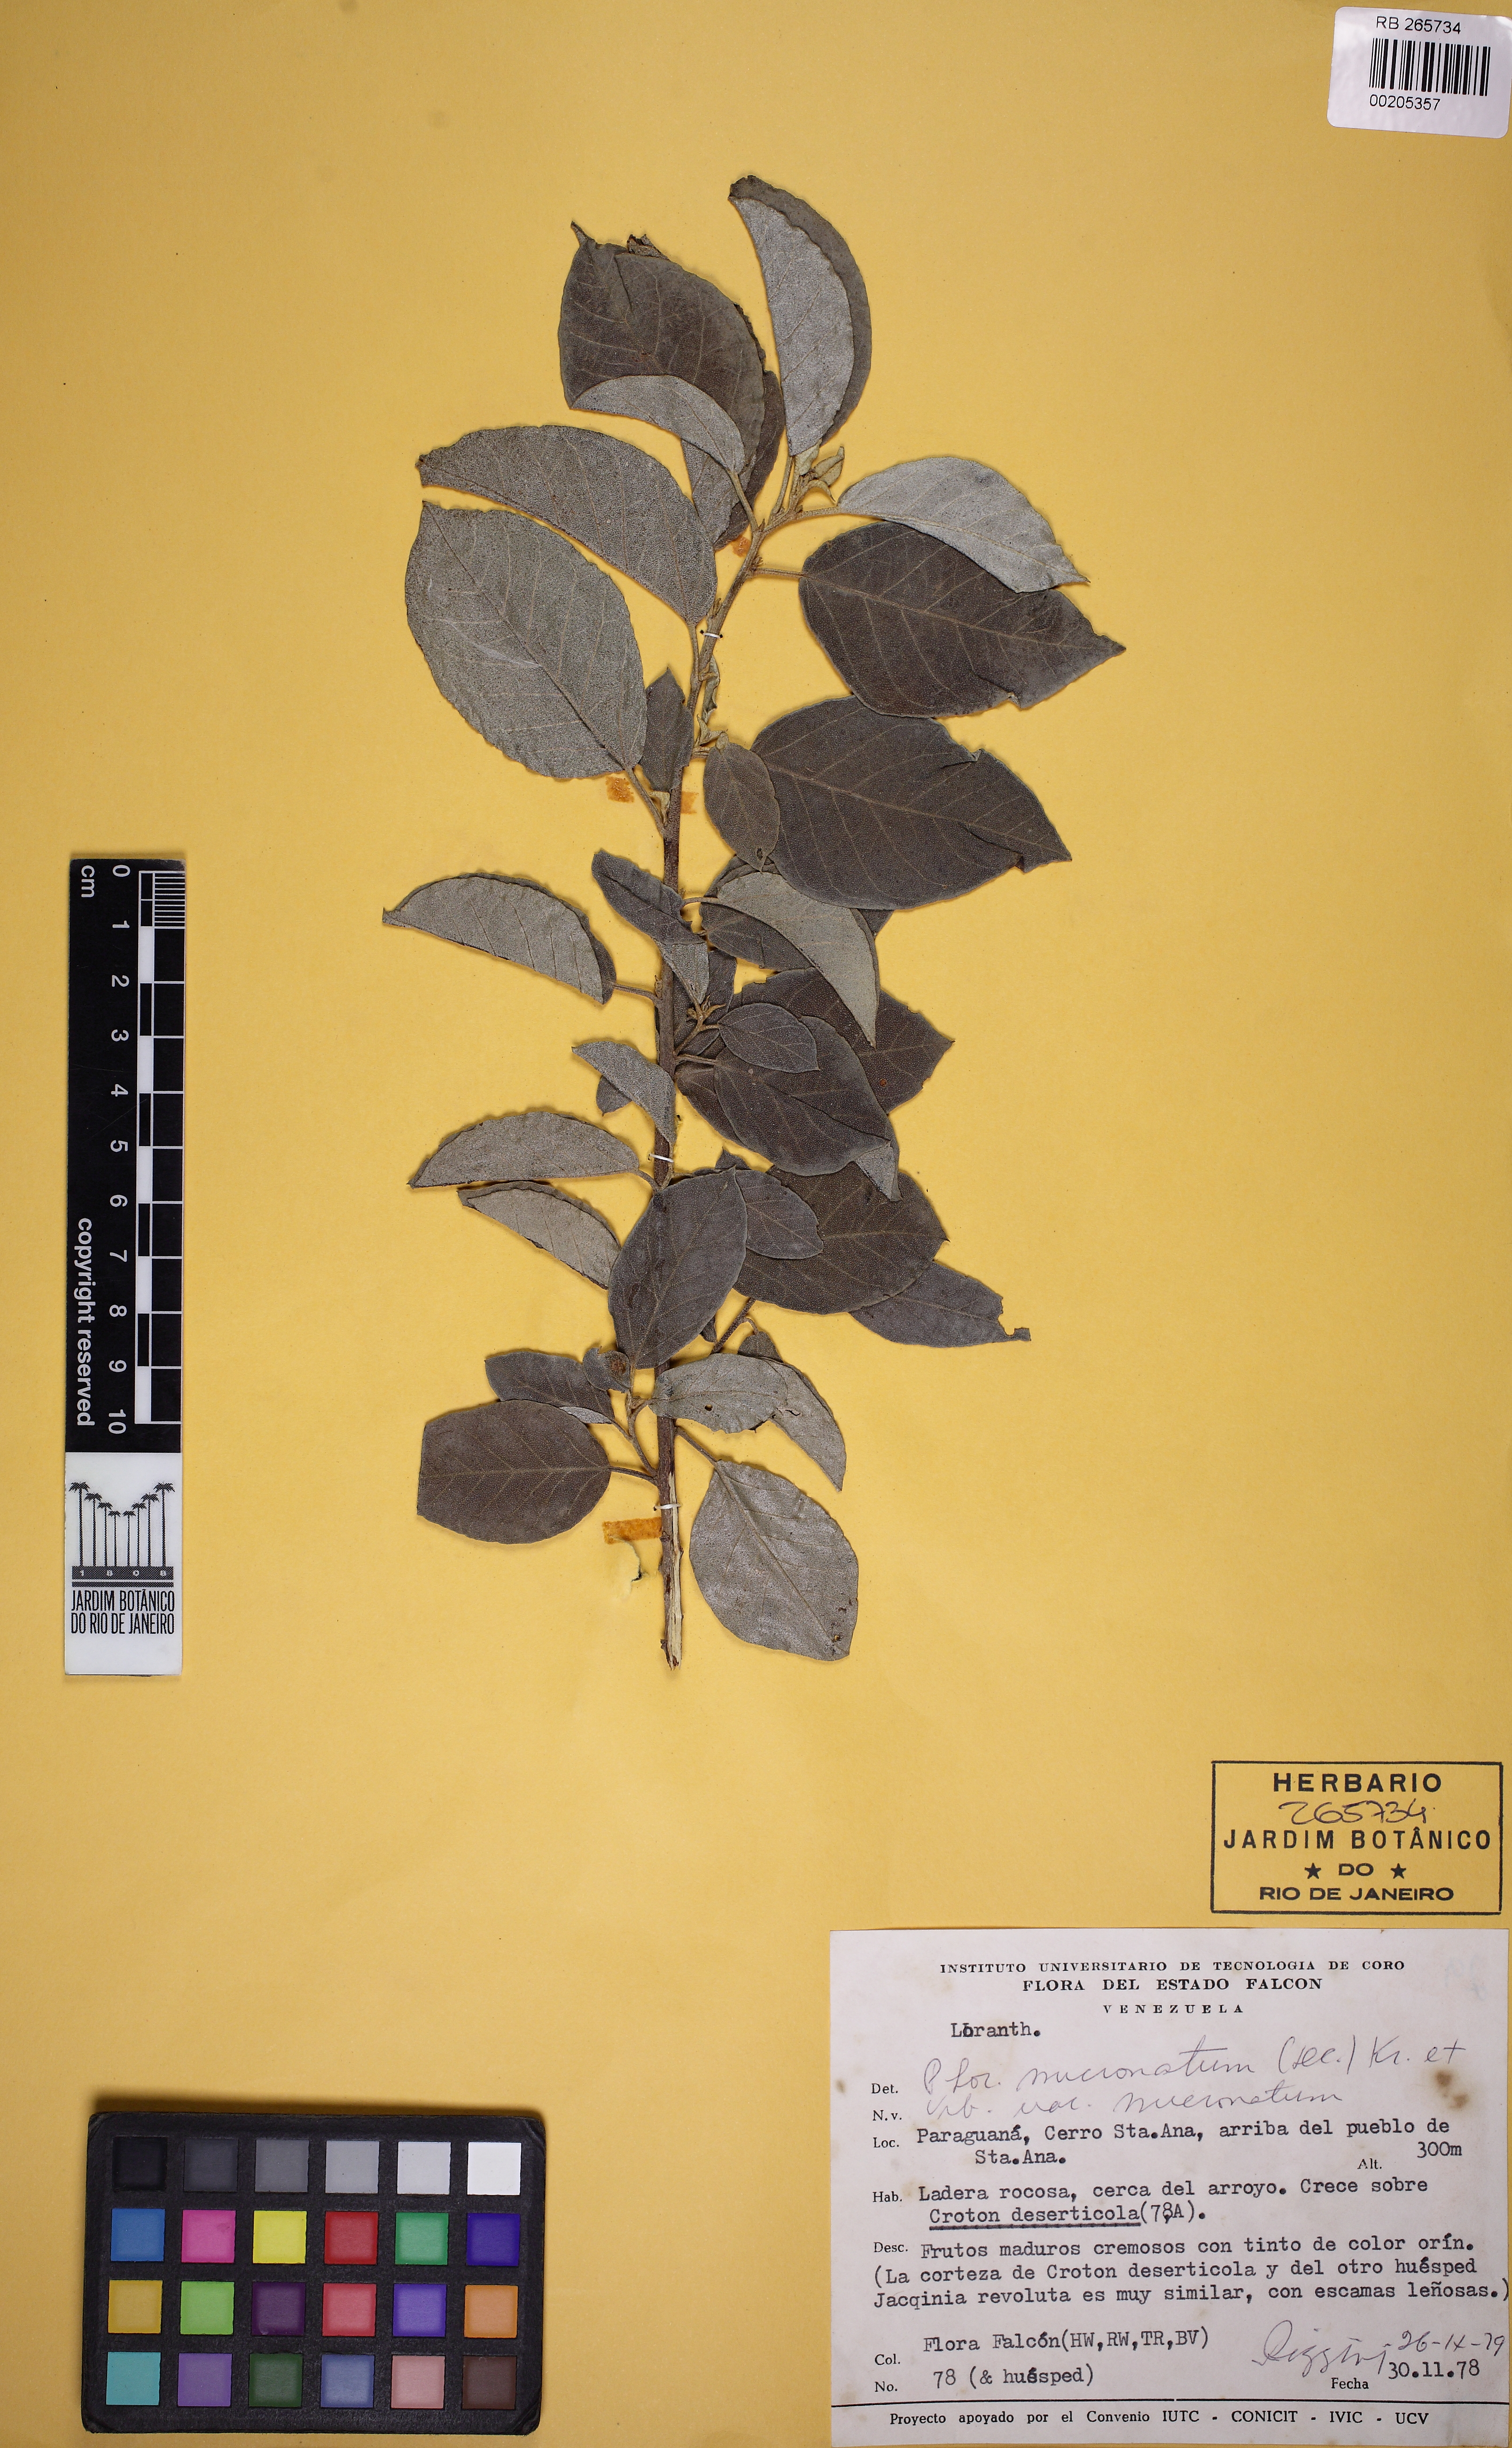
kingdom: Plantae
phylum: Tracheophyta
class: Magnoliopsida
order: Santalales
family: Viscaceae
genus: Phoradendron
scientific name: Phoradendron mucronatum
